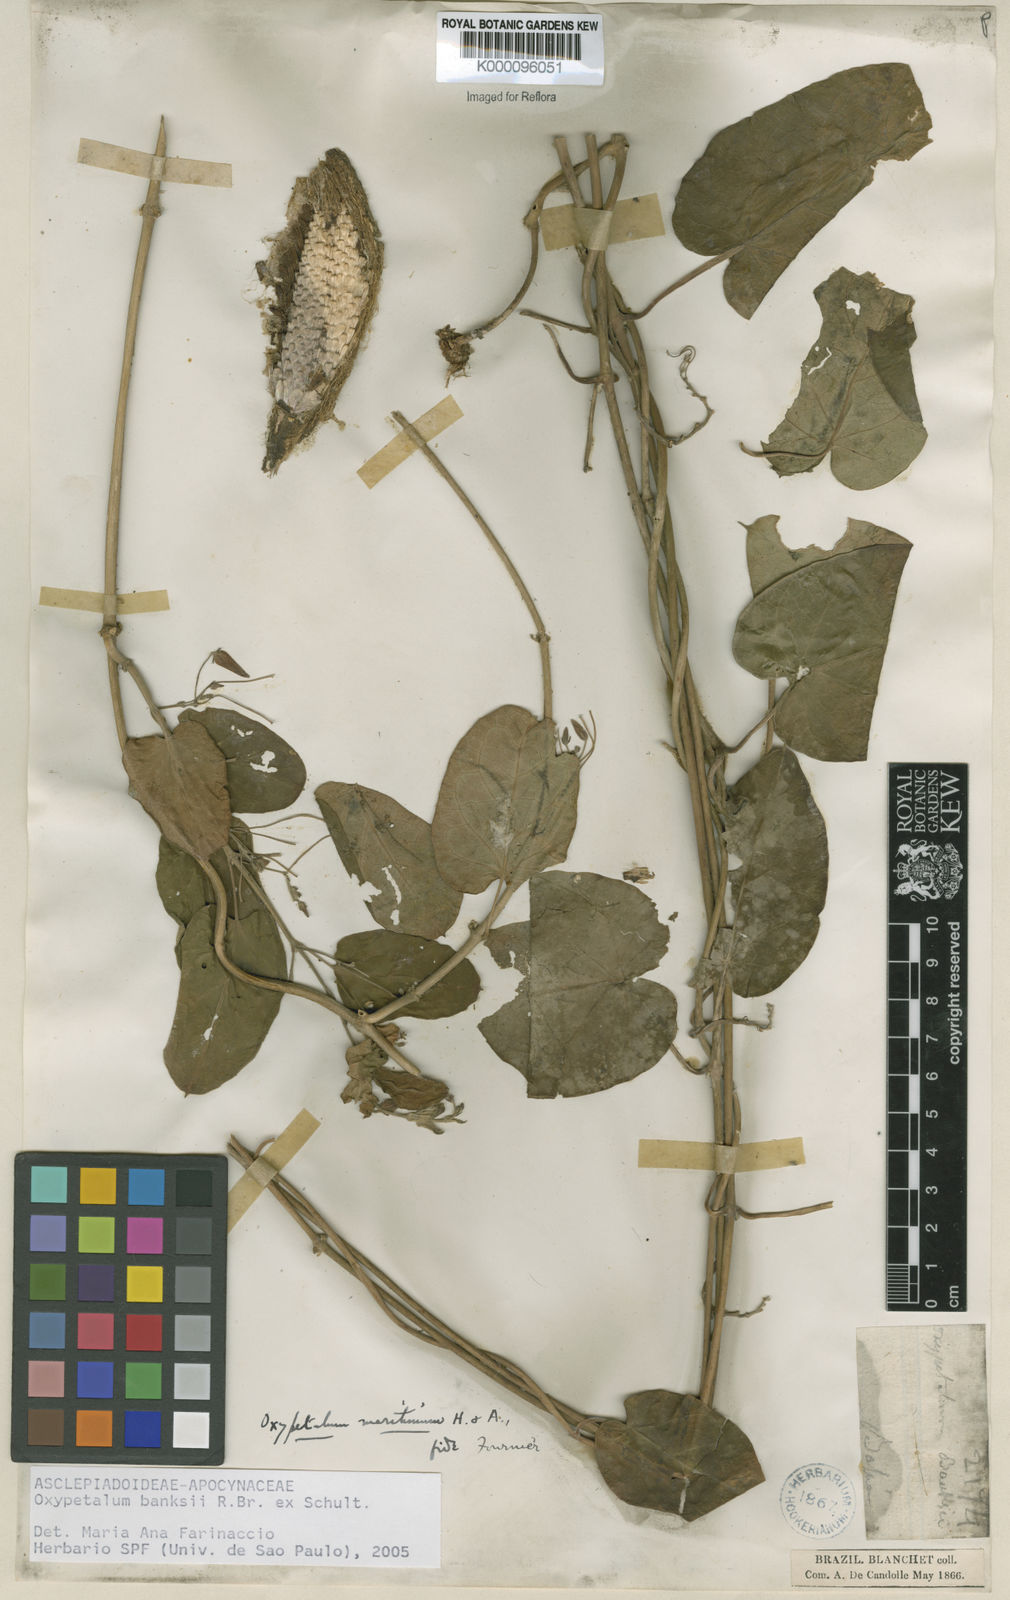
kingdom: Plantae
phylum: Tracheophyta
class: Magnoliopsida
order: Gentianales
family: Apocynaceae
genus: Oxypetalum
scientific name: Oxypetalum banksii
